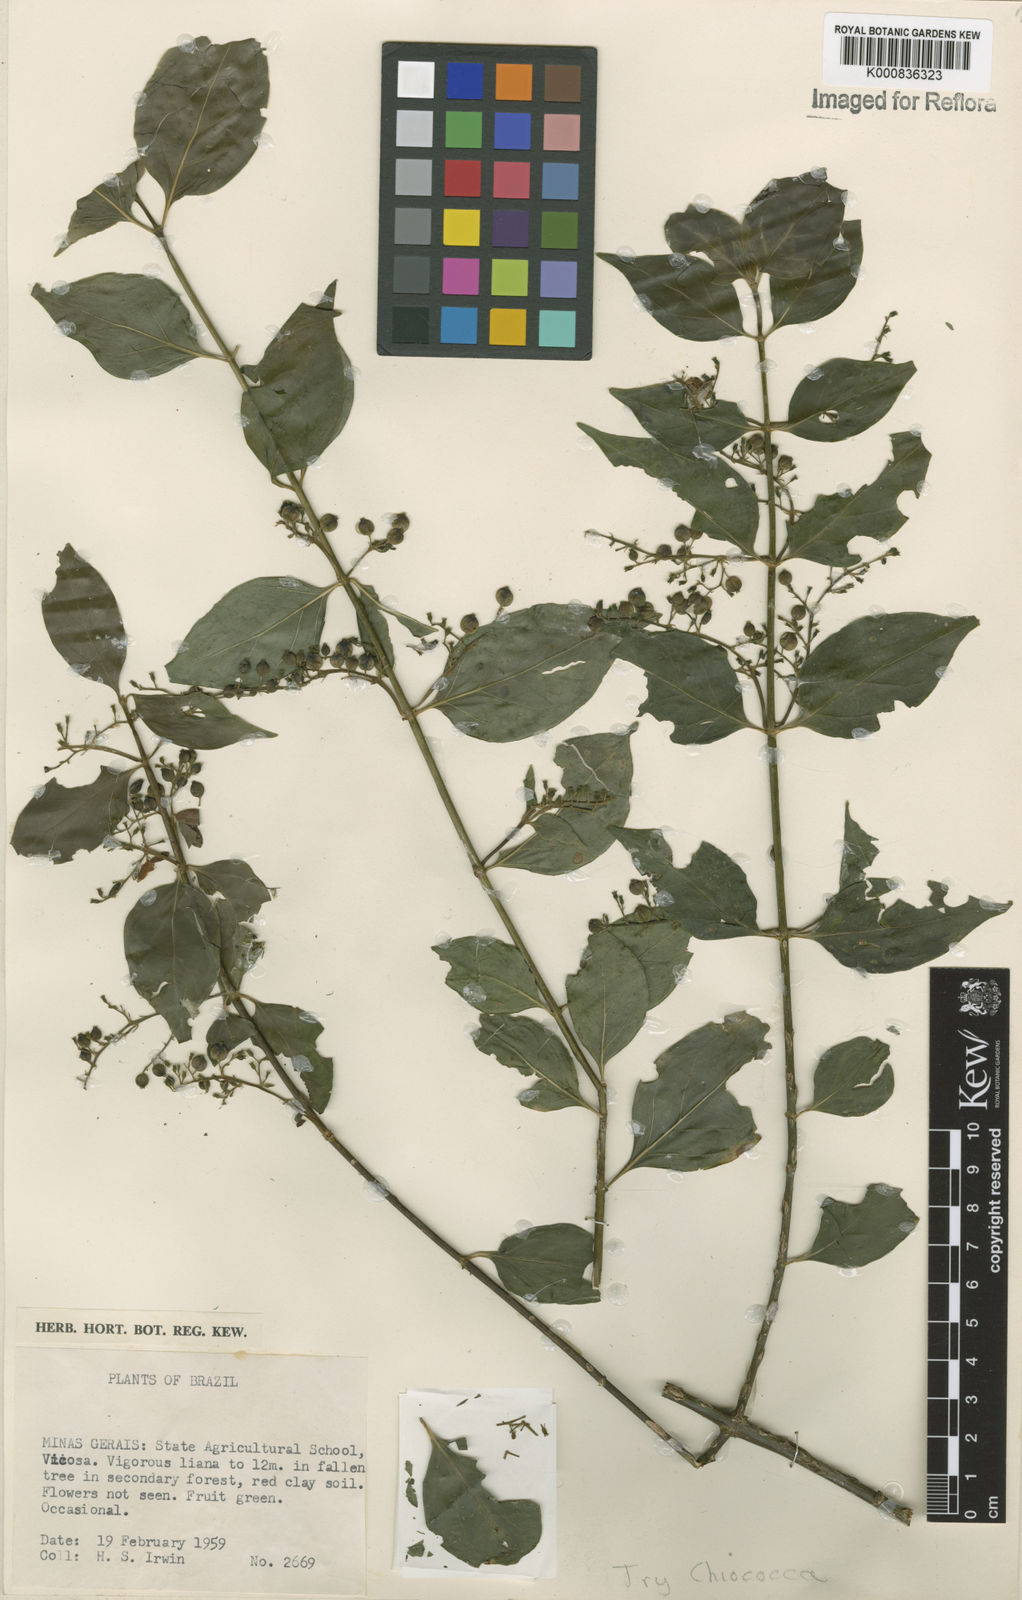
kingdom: Plantae
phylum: Tracheophyta
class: Magnoliopsida
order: Gentianales
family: Rubiaceae
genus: Chiococca
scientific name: Chiococca alba
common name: Snowberry
